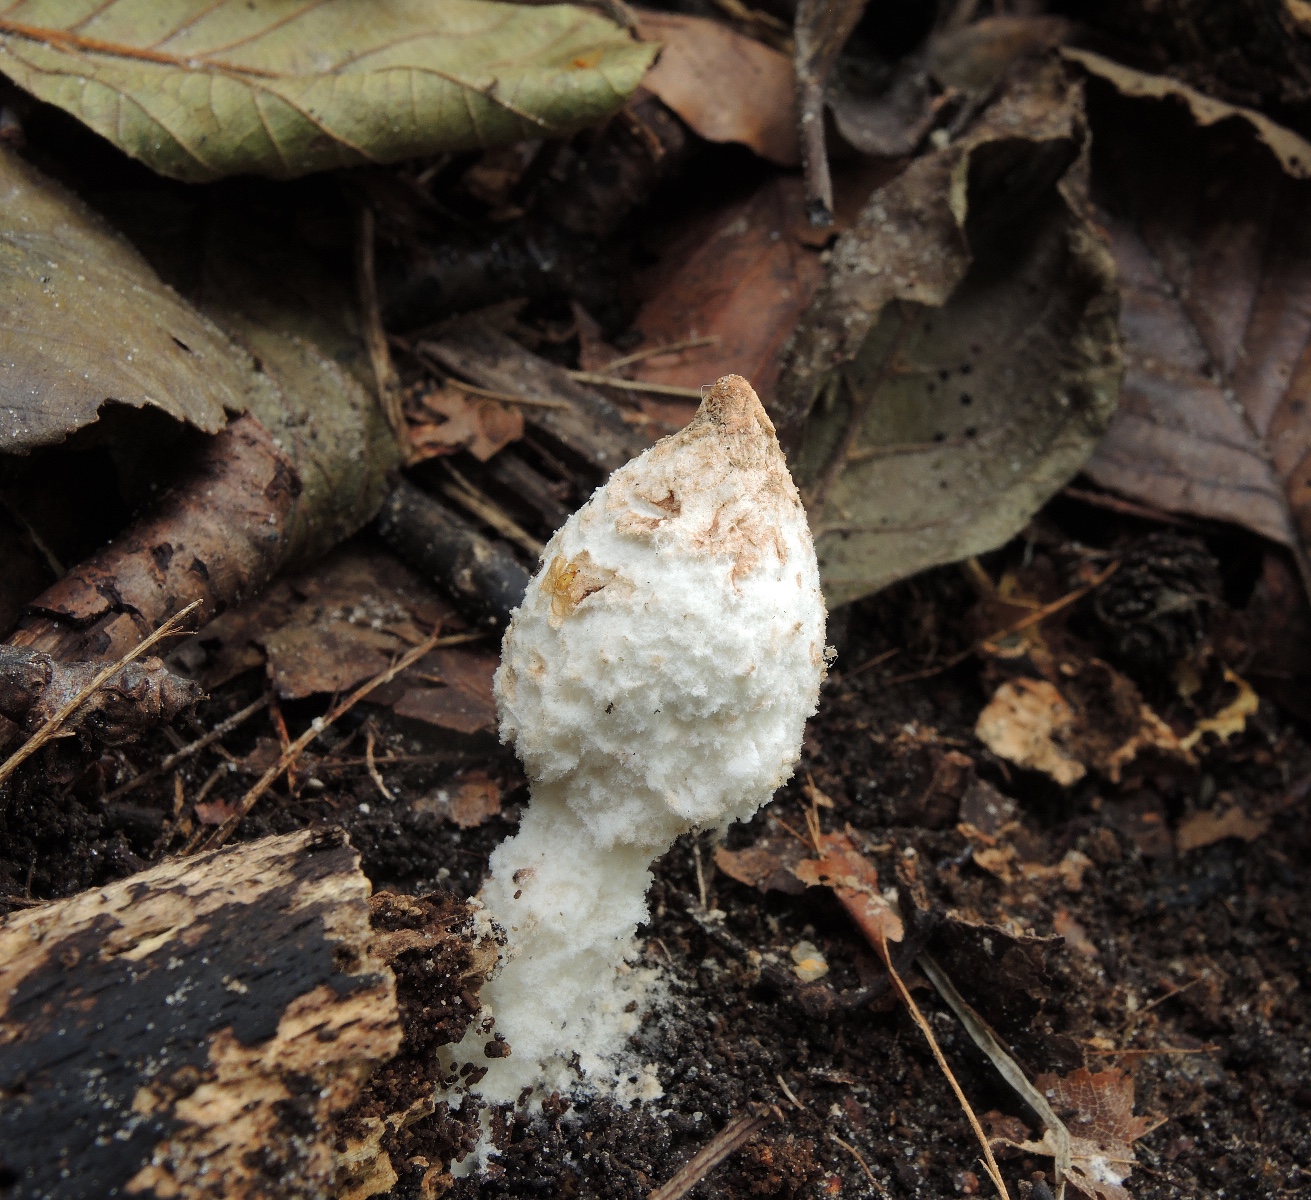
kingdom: Fungi
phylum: Basidiomycota
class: Agaricomycetes
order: Agaricales
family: Agaricaceae
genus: Cystolepiota
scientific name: Cystolepiota petasiformis
